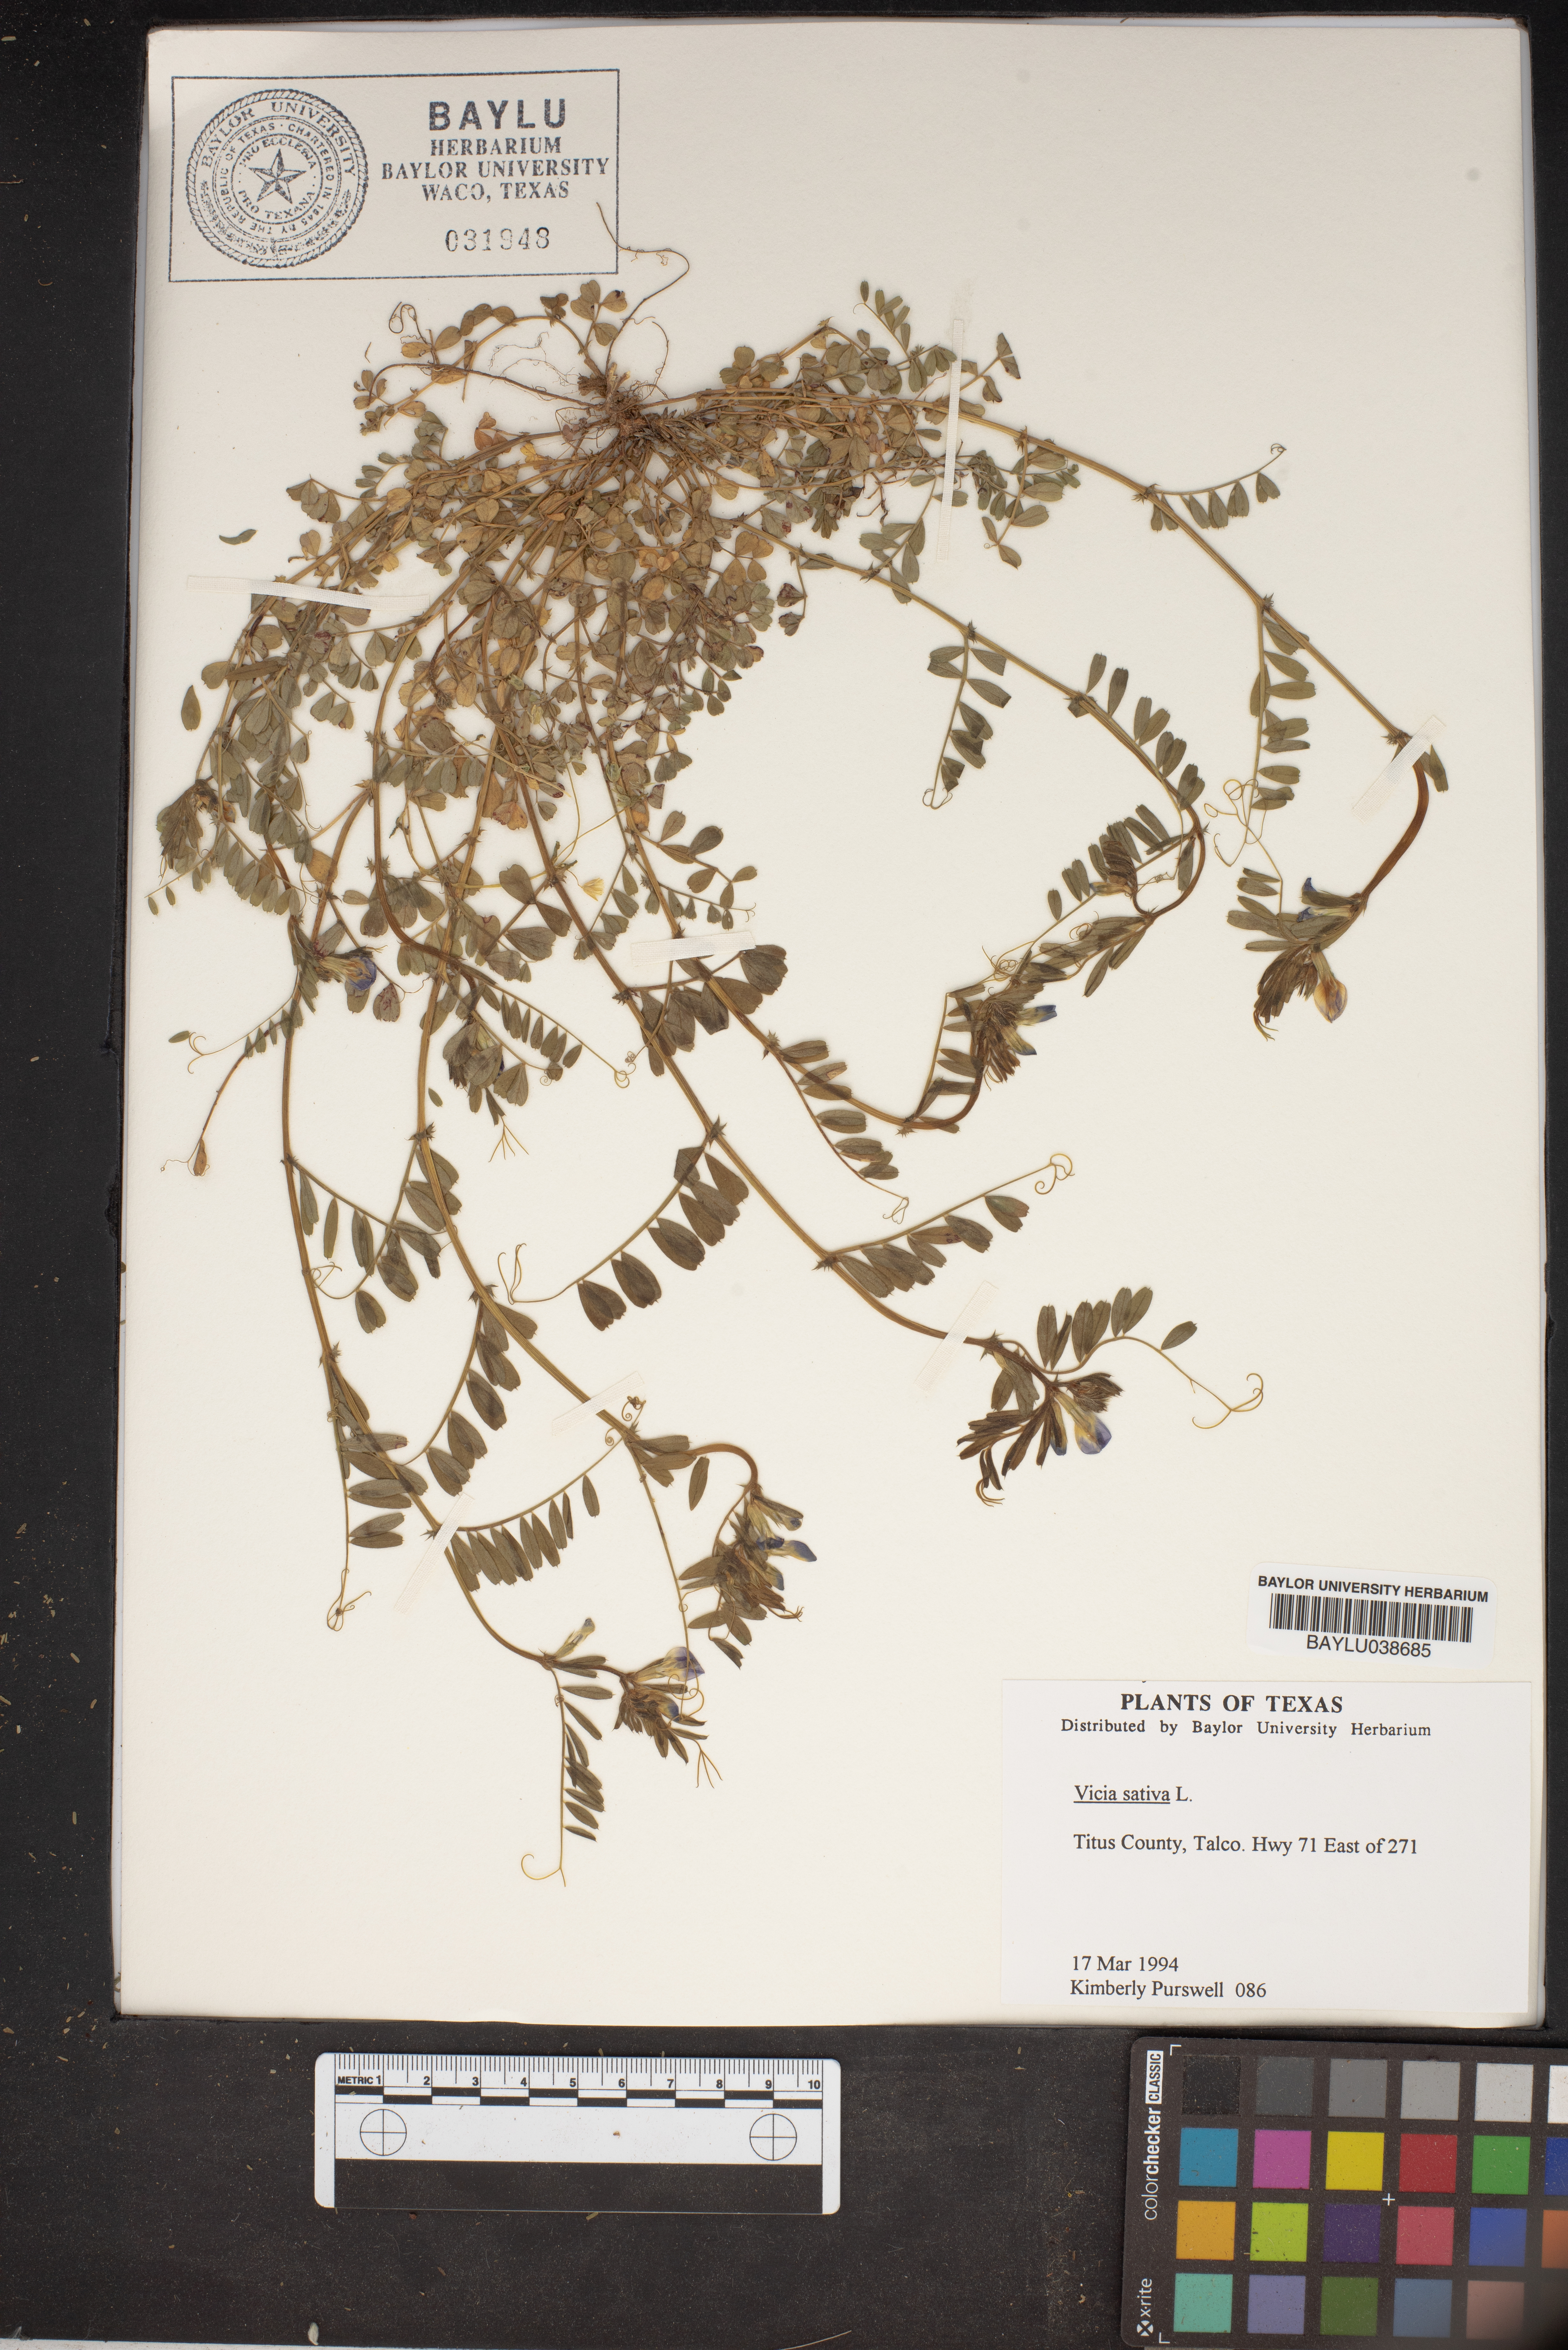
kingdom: Plantae
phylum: Tracheophyta
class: Magnoliopsida
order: Fabales
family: Fabaceae
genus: Vicia
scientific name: Vicia sativa
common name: Garden vetch
